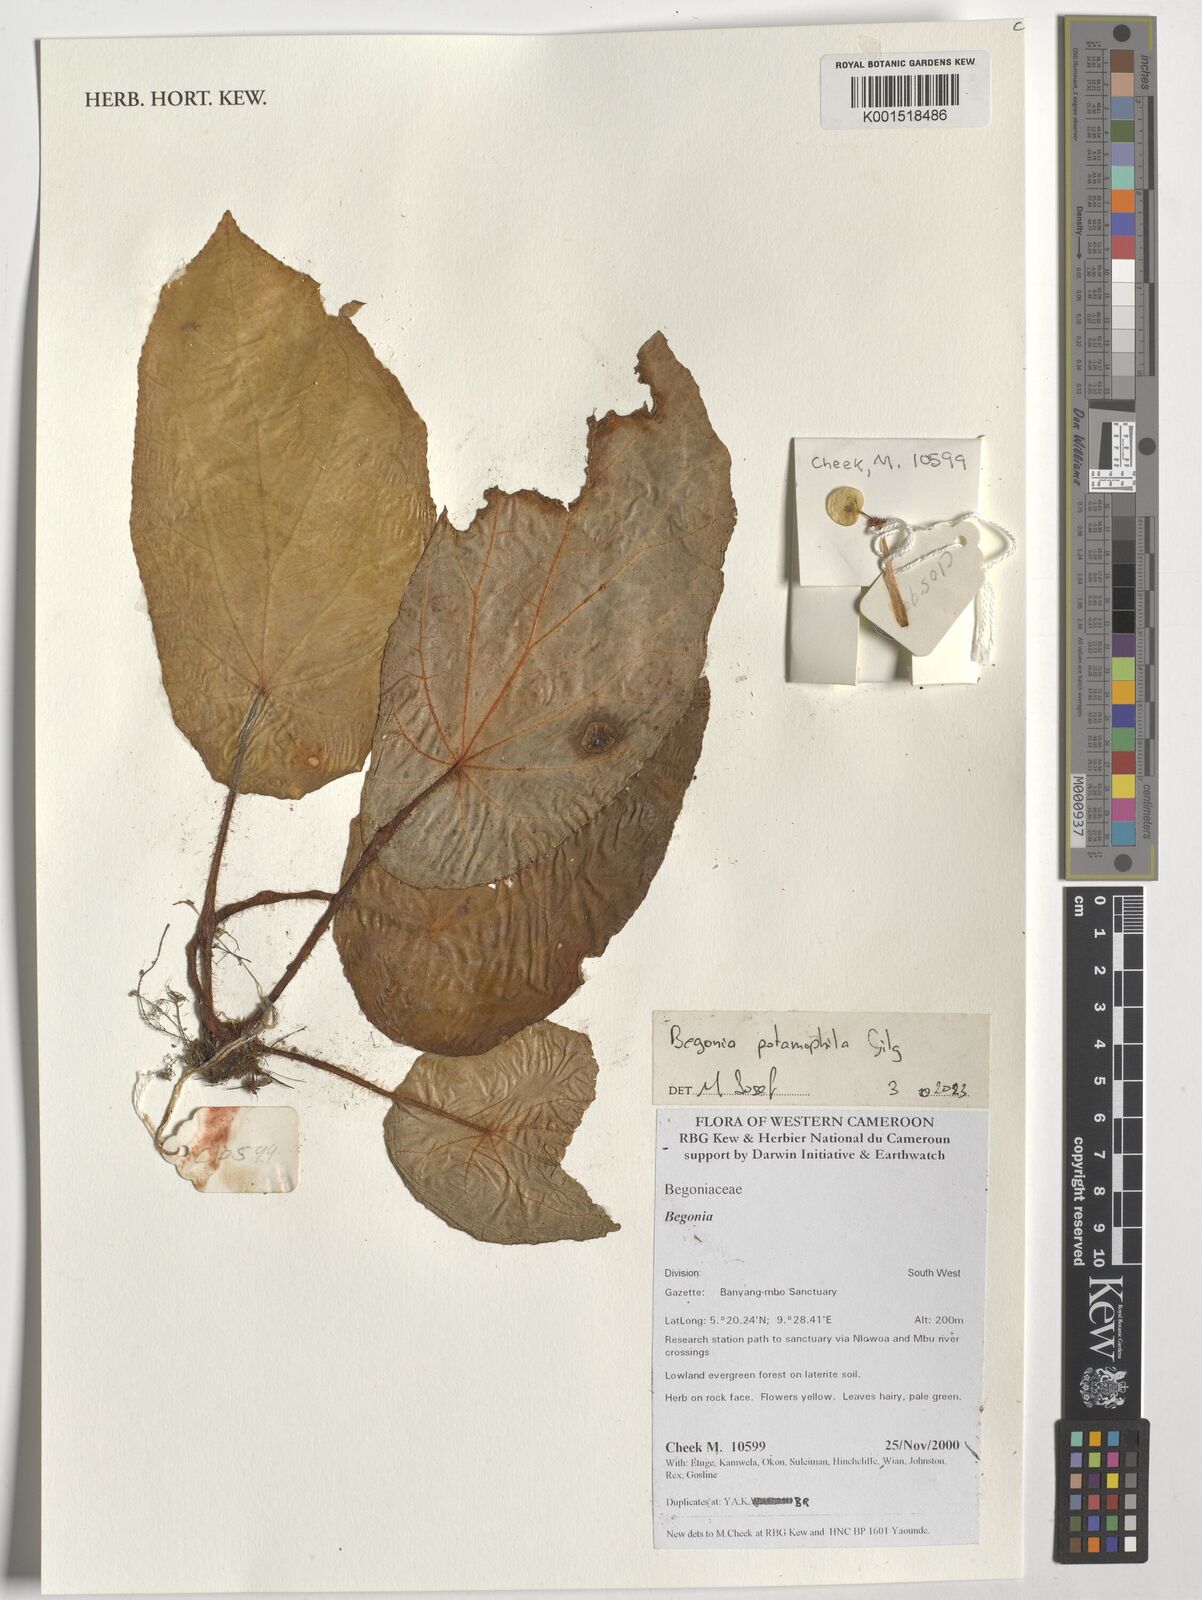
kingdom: Plantae
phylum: Tracheophyta
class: Magnoliopsida
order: Cucurbitales
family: Begoniaceae
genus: Begonia
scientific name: Begonia potamophila
